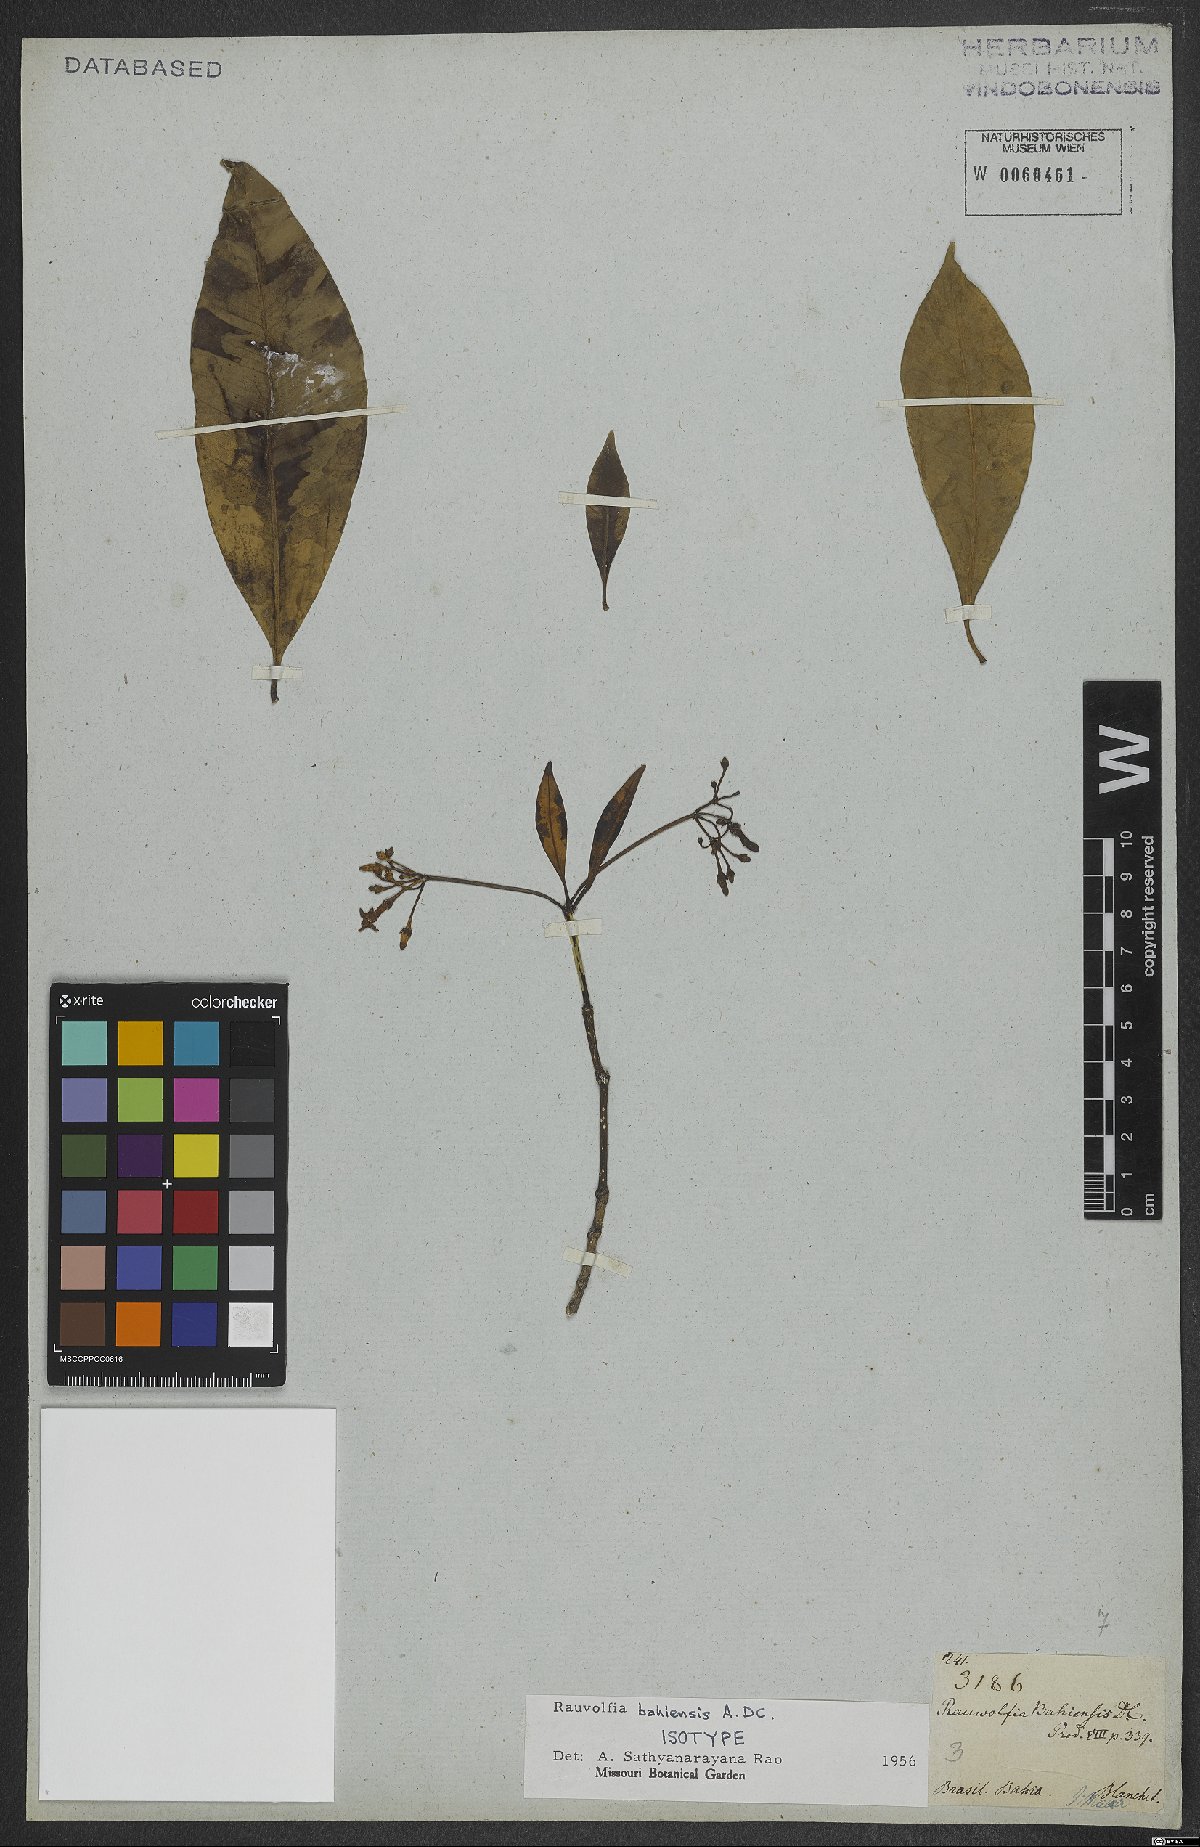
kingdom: Plantae
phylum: Tracheophyta
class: Magnoliopsida
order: Gentianales
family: Apocynaceae
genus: Rauvolfia
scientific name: Rauvolfia bahiensis
